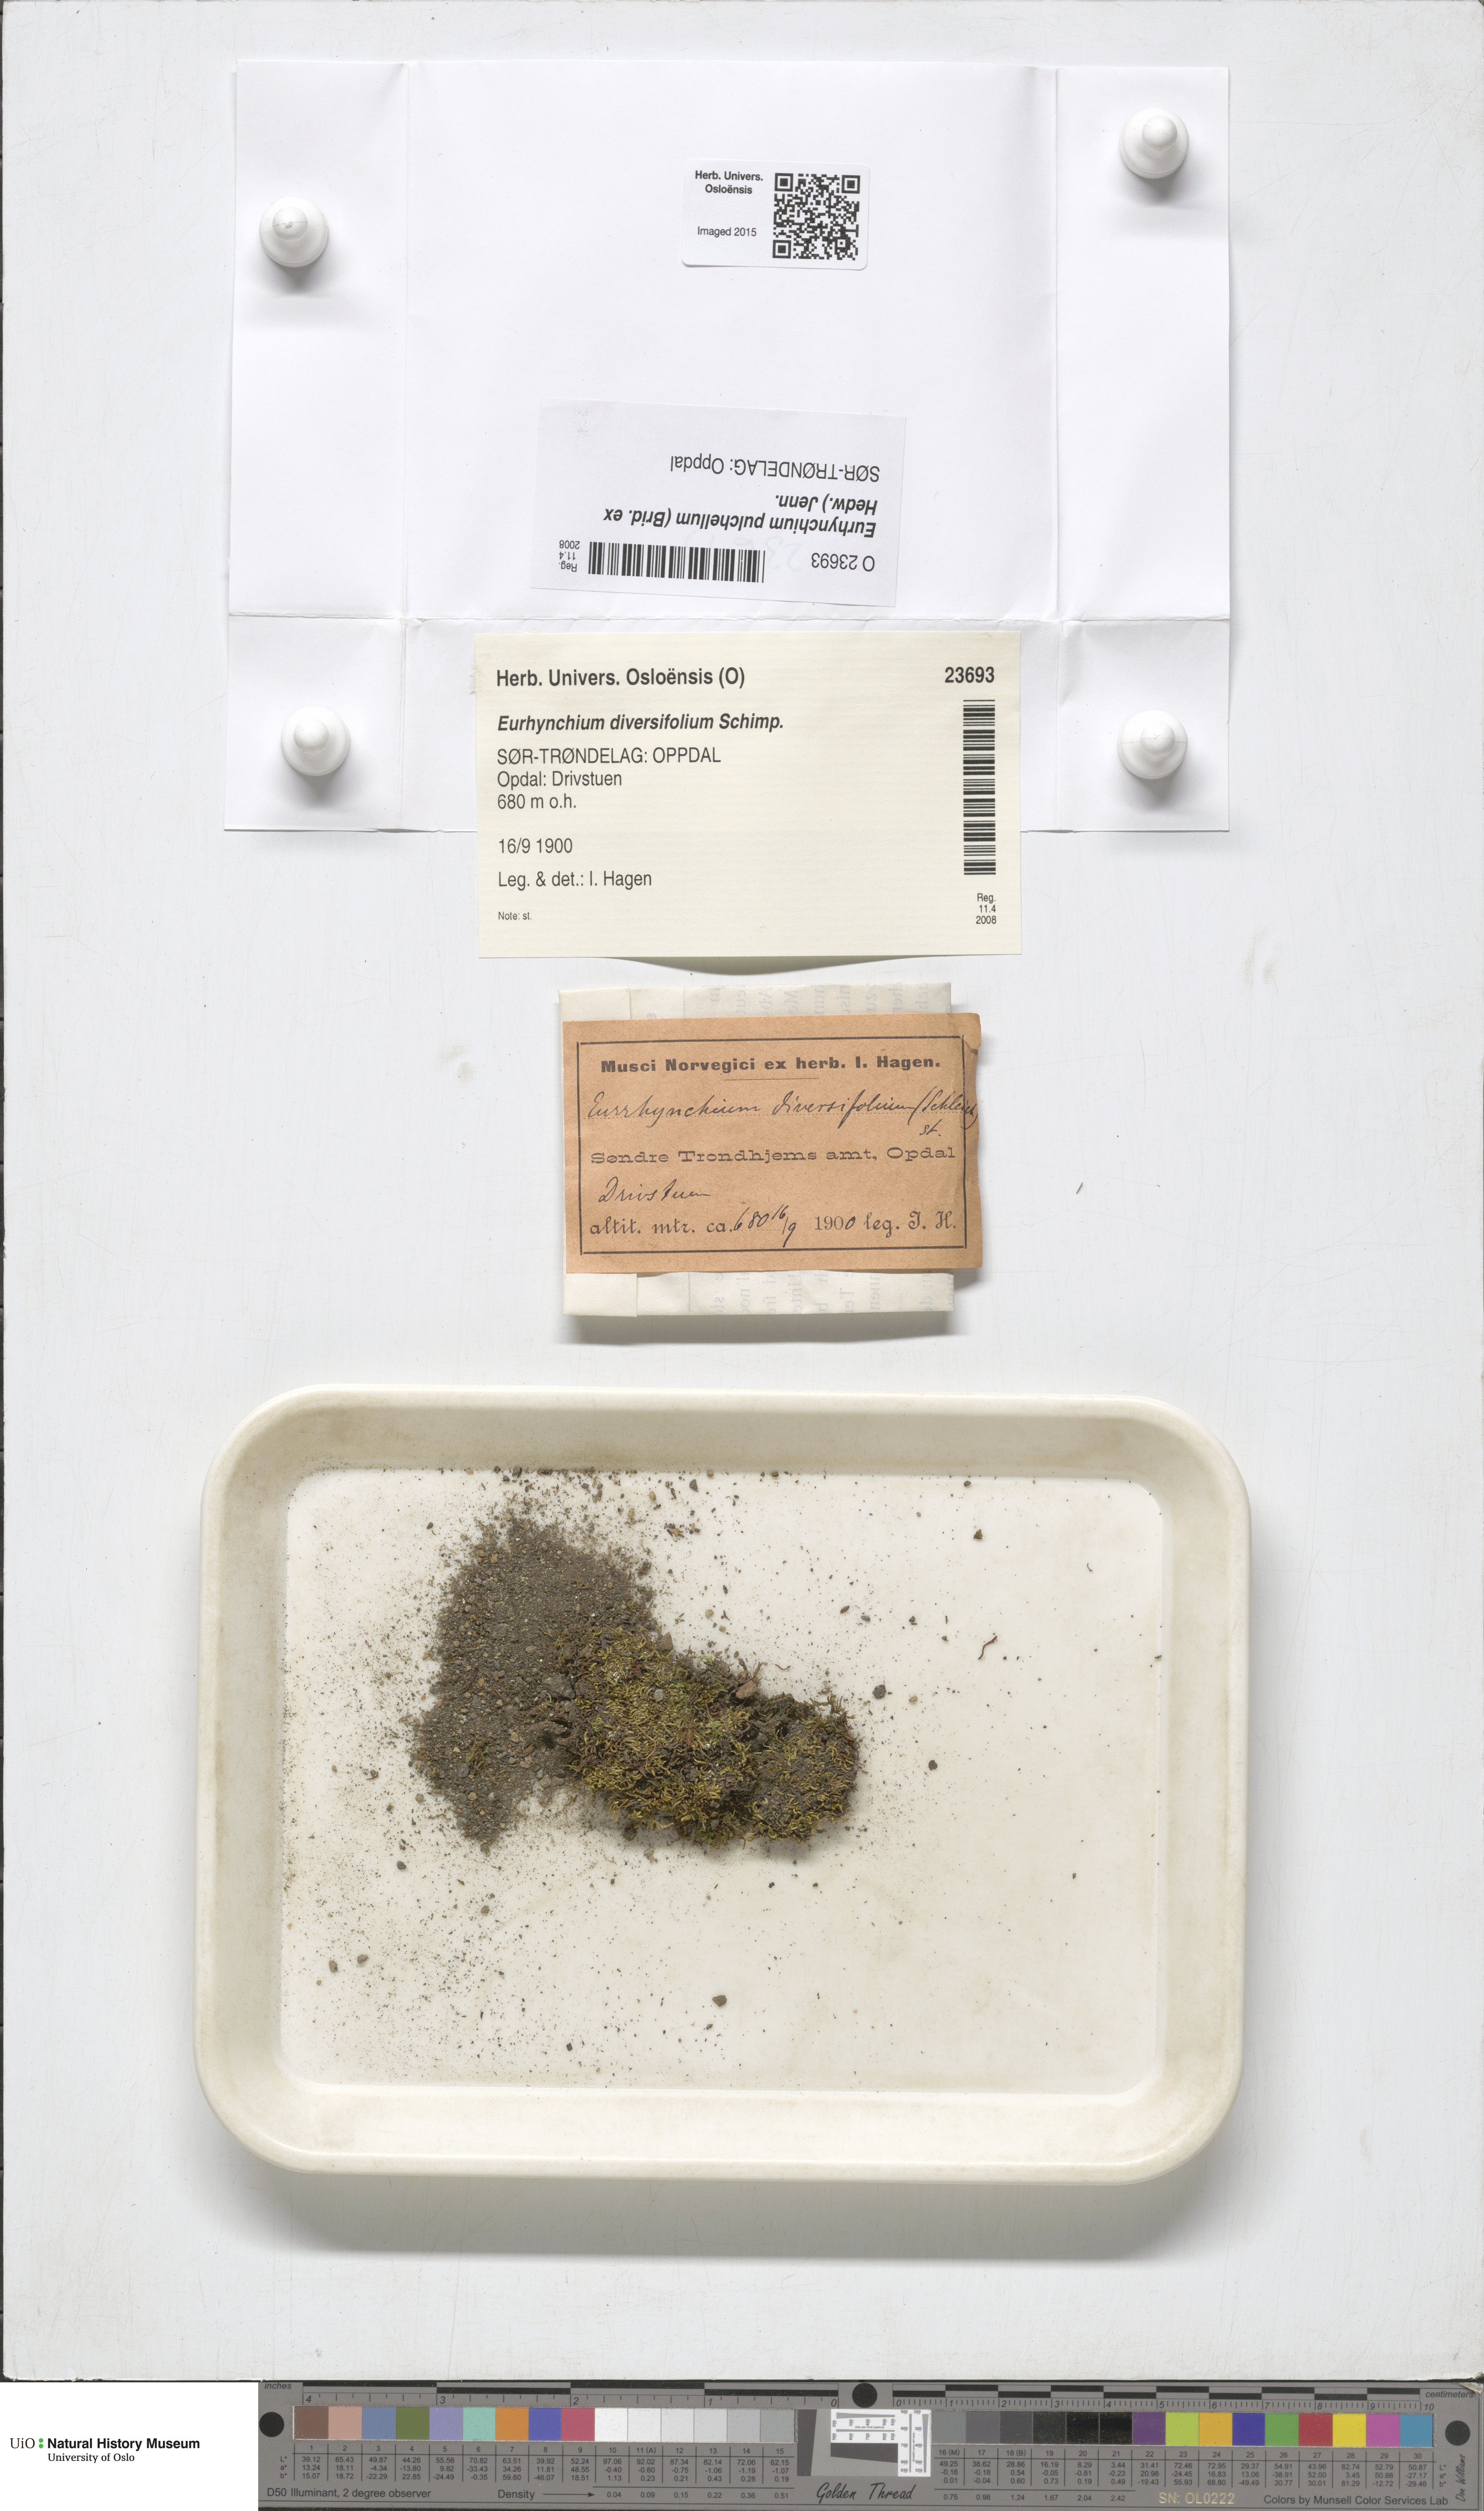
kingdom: Plantae
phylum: Bryophyta
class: Bryopsida
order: Hypnales
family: Brachytheciaceae
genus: Eurhynchiastrum
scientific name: Eurhynchiastrum diversifolium
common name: Elegant feather-moss
